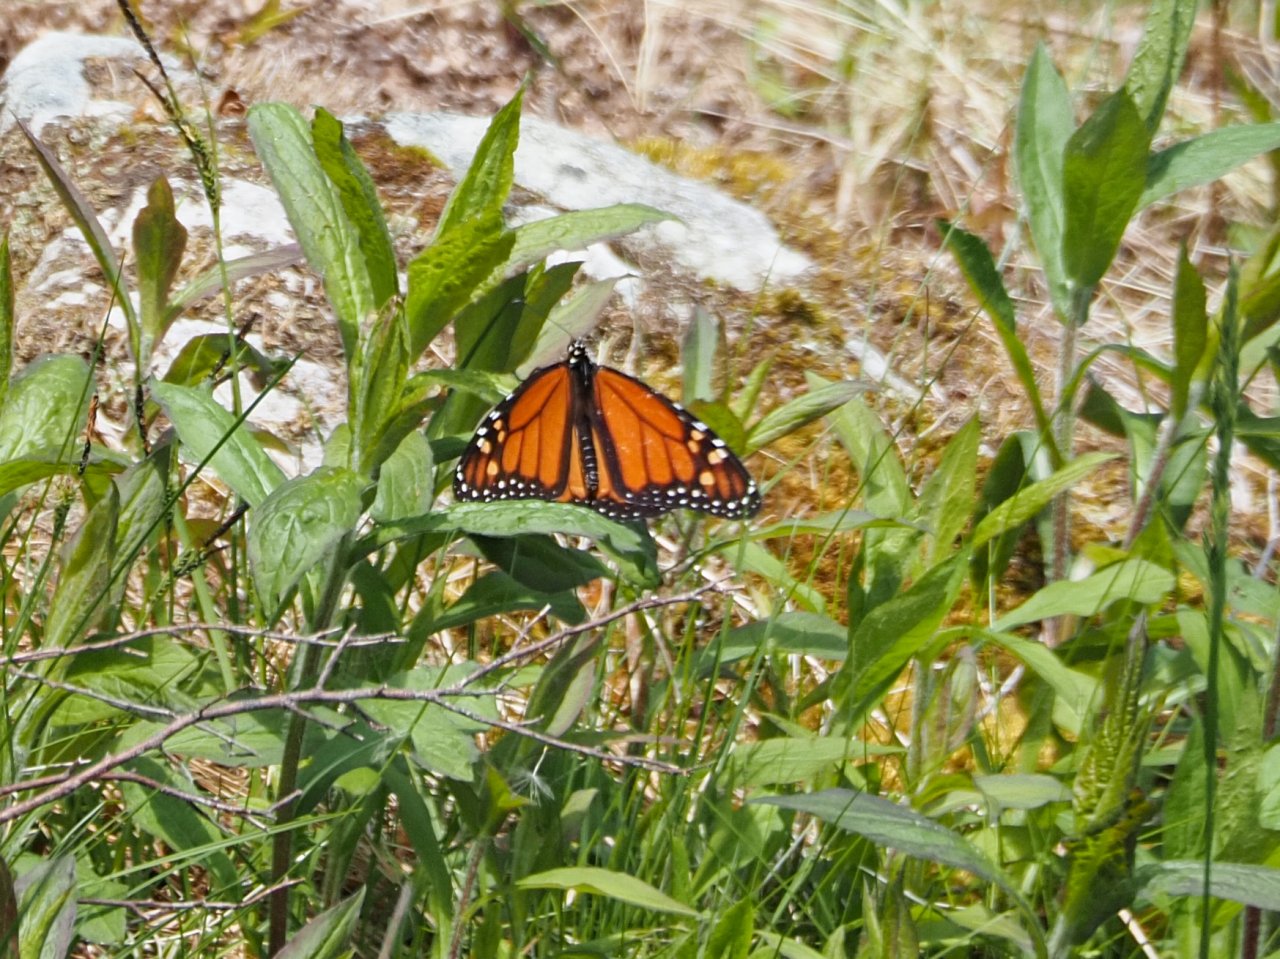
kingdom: Animalia
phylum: Arthropoda
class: Insecta
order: Lepidoptera
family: Nymphalidae
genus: Danaus
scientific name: Danaus plexippus
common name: Monarch
